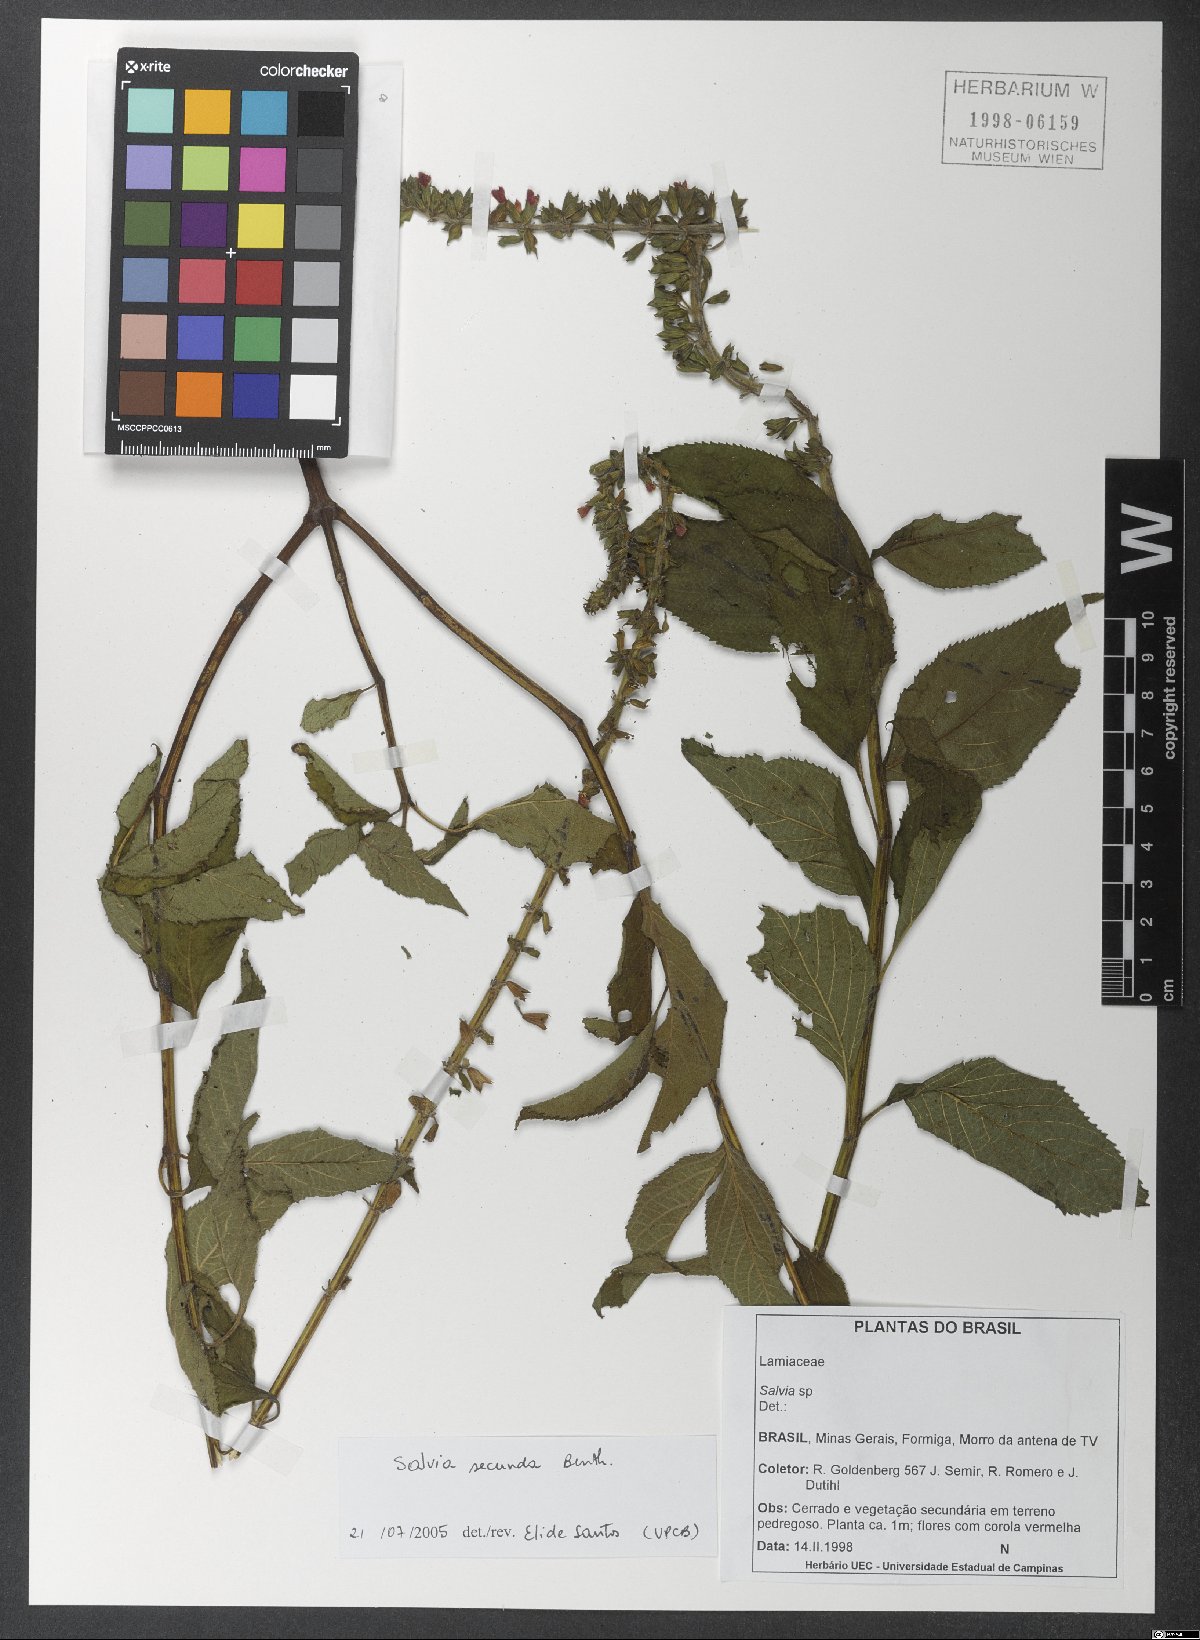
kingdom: Plantae
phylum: Tracheophyta
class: Magnoliopsida
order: Lamiales
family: Lamiaceae
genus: Salvia
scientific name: Salvia secunda
